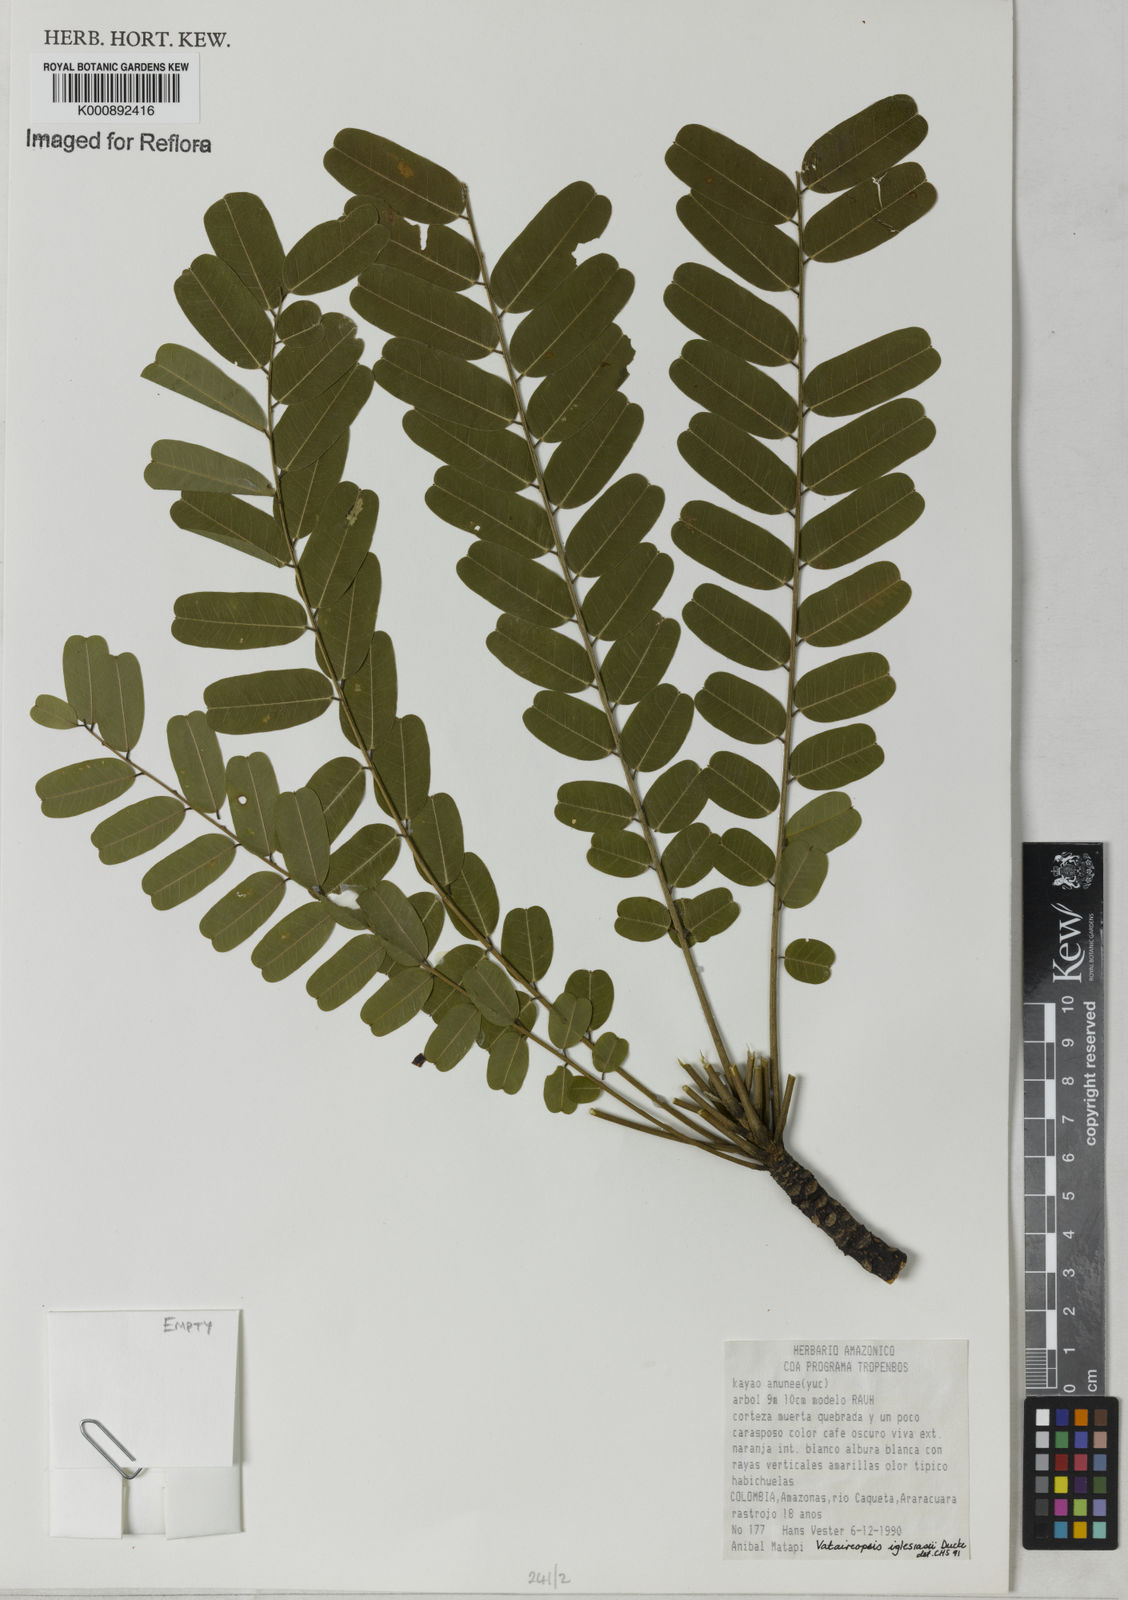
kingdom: Plantae
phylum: Tracheophyta
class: Magnoliopsida
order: Fabales
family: Fabaceae
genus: Vataireopsis
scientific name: Vataireopsis iglesiasii
